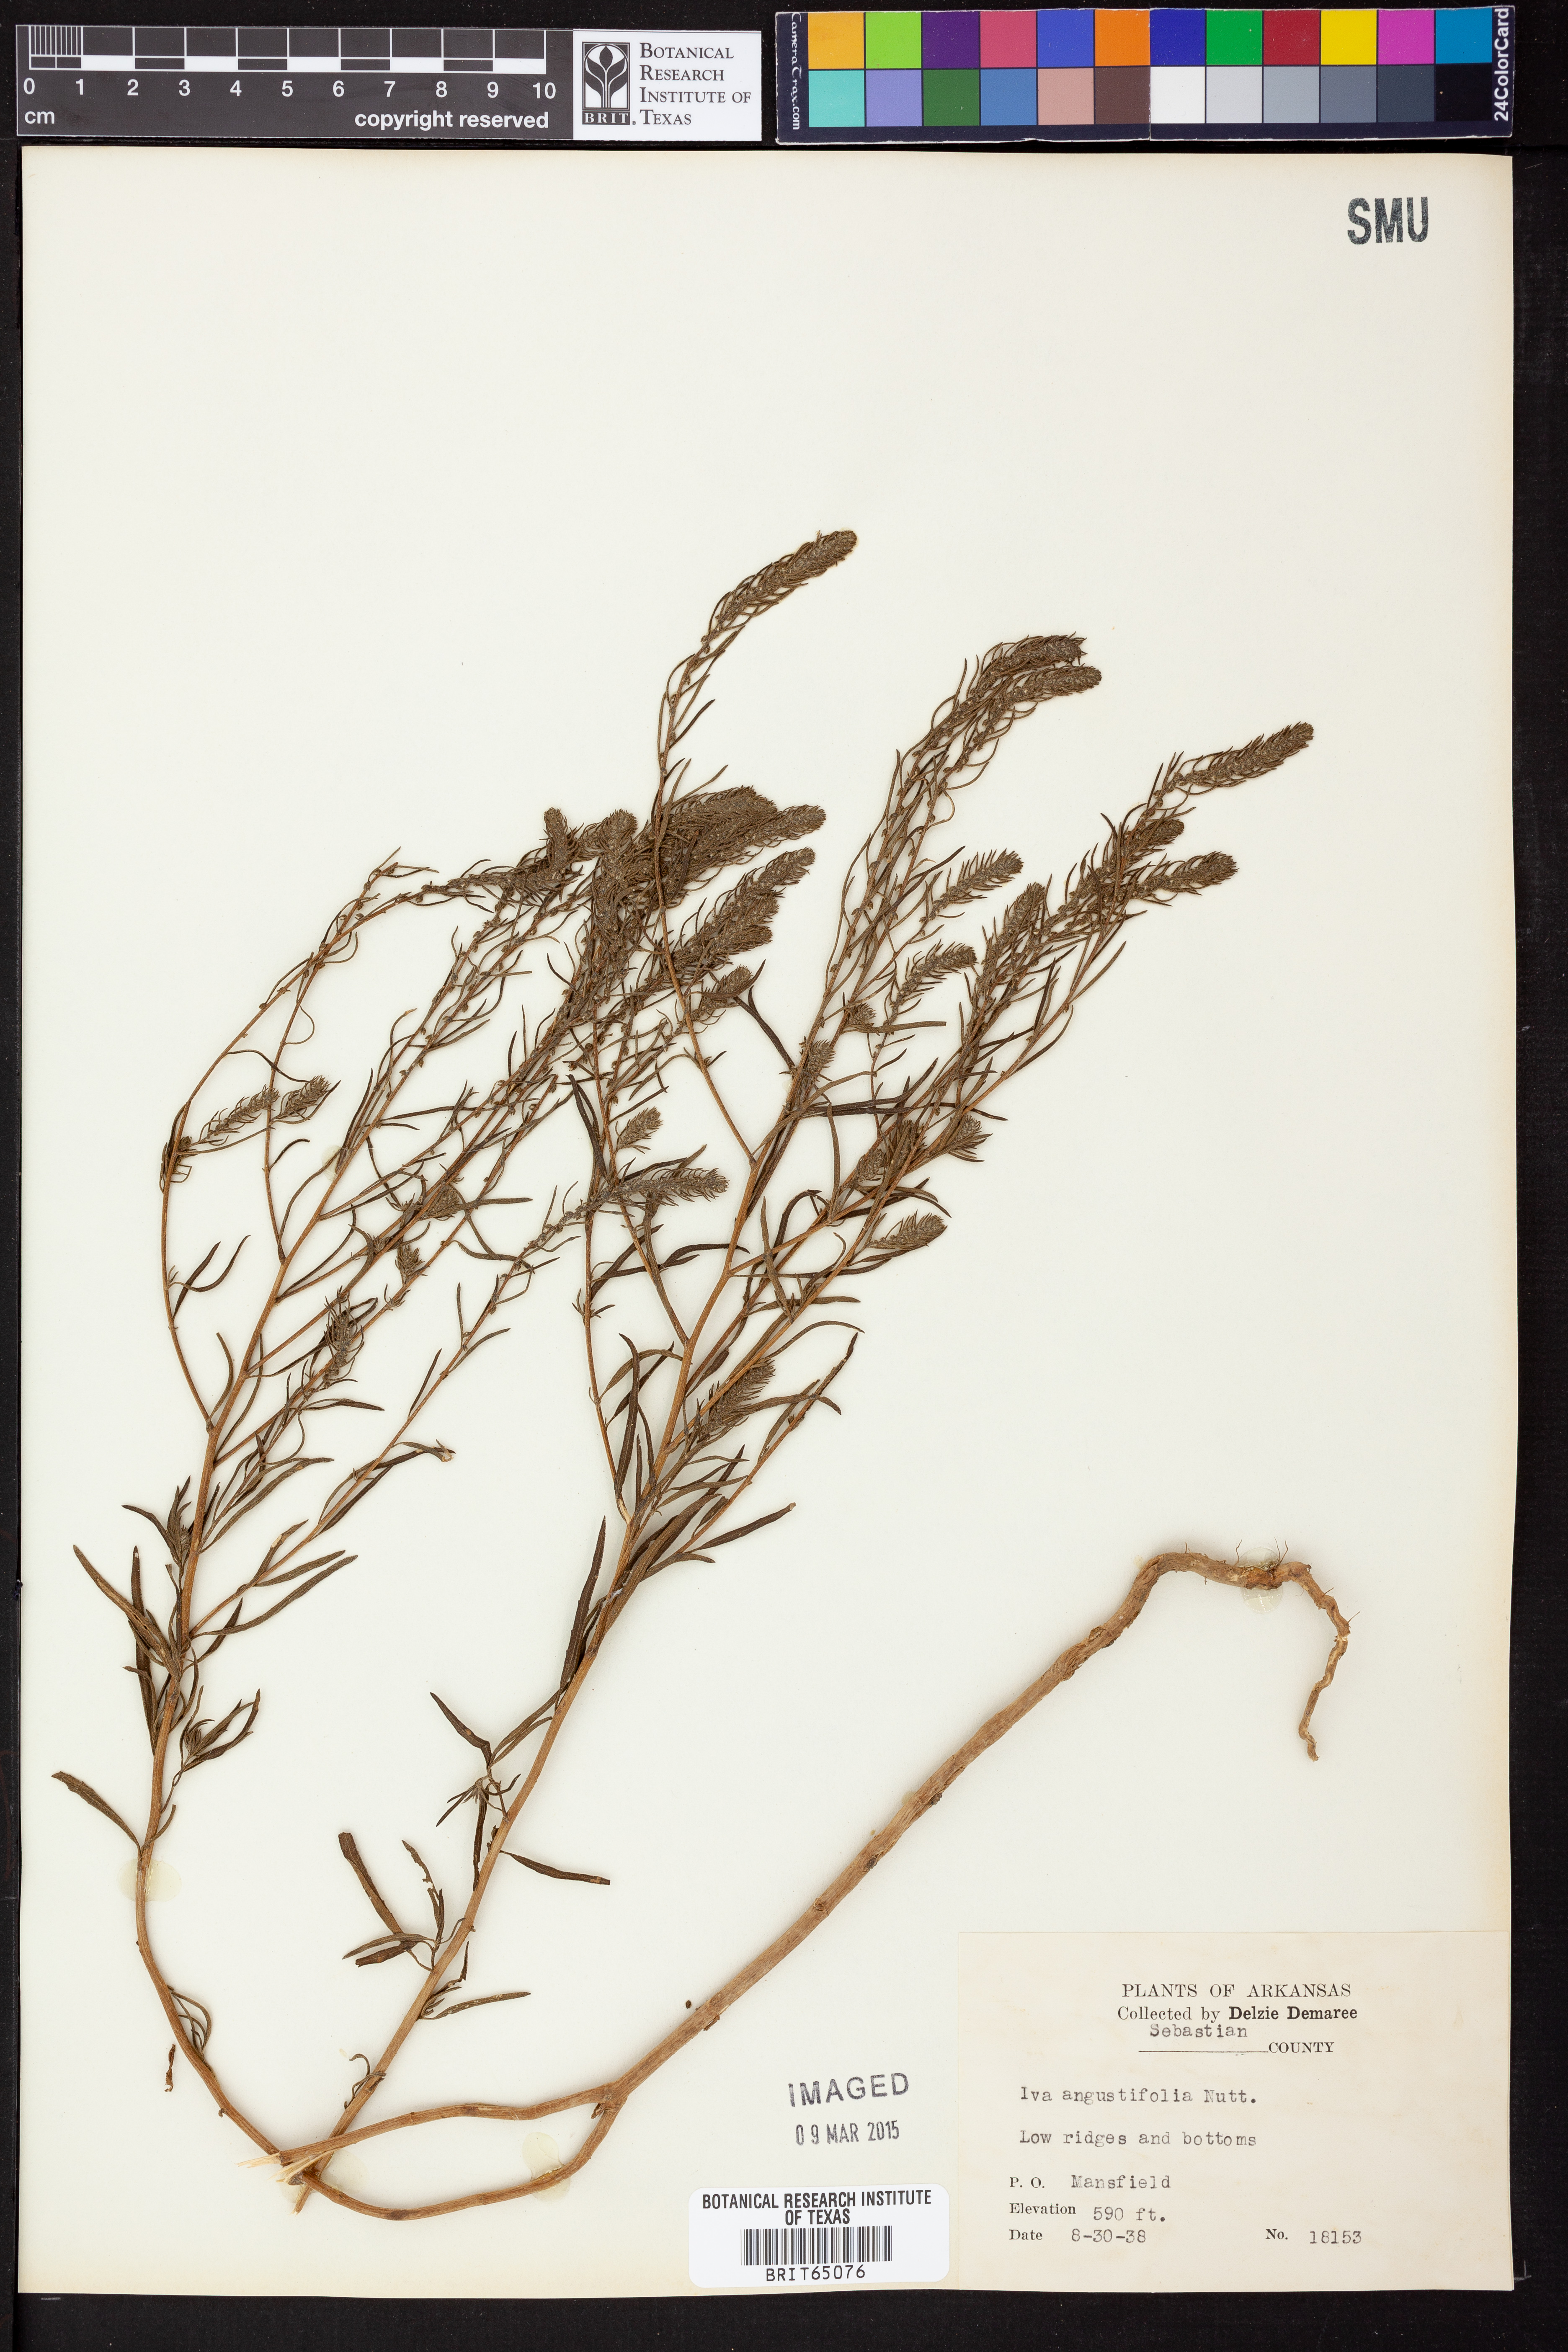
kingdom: Plantae
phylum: Tracheophyta
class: Magnoliopsida
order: Asterales
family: Asteraceae
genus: Iva
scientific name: Iva asperifolia
